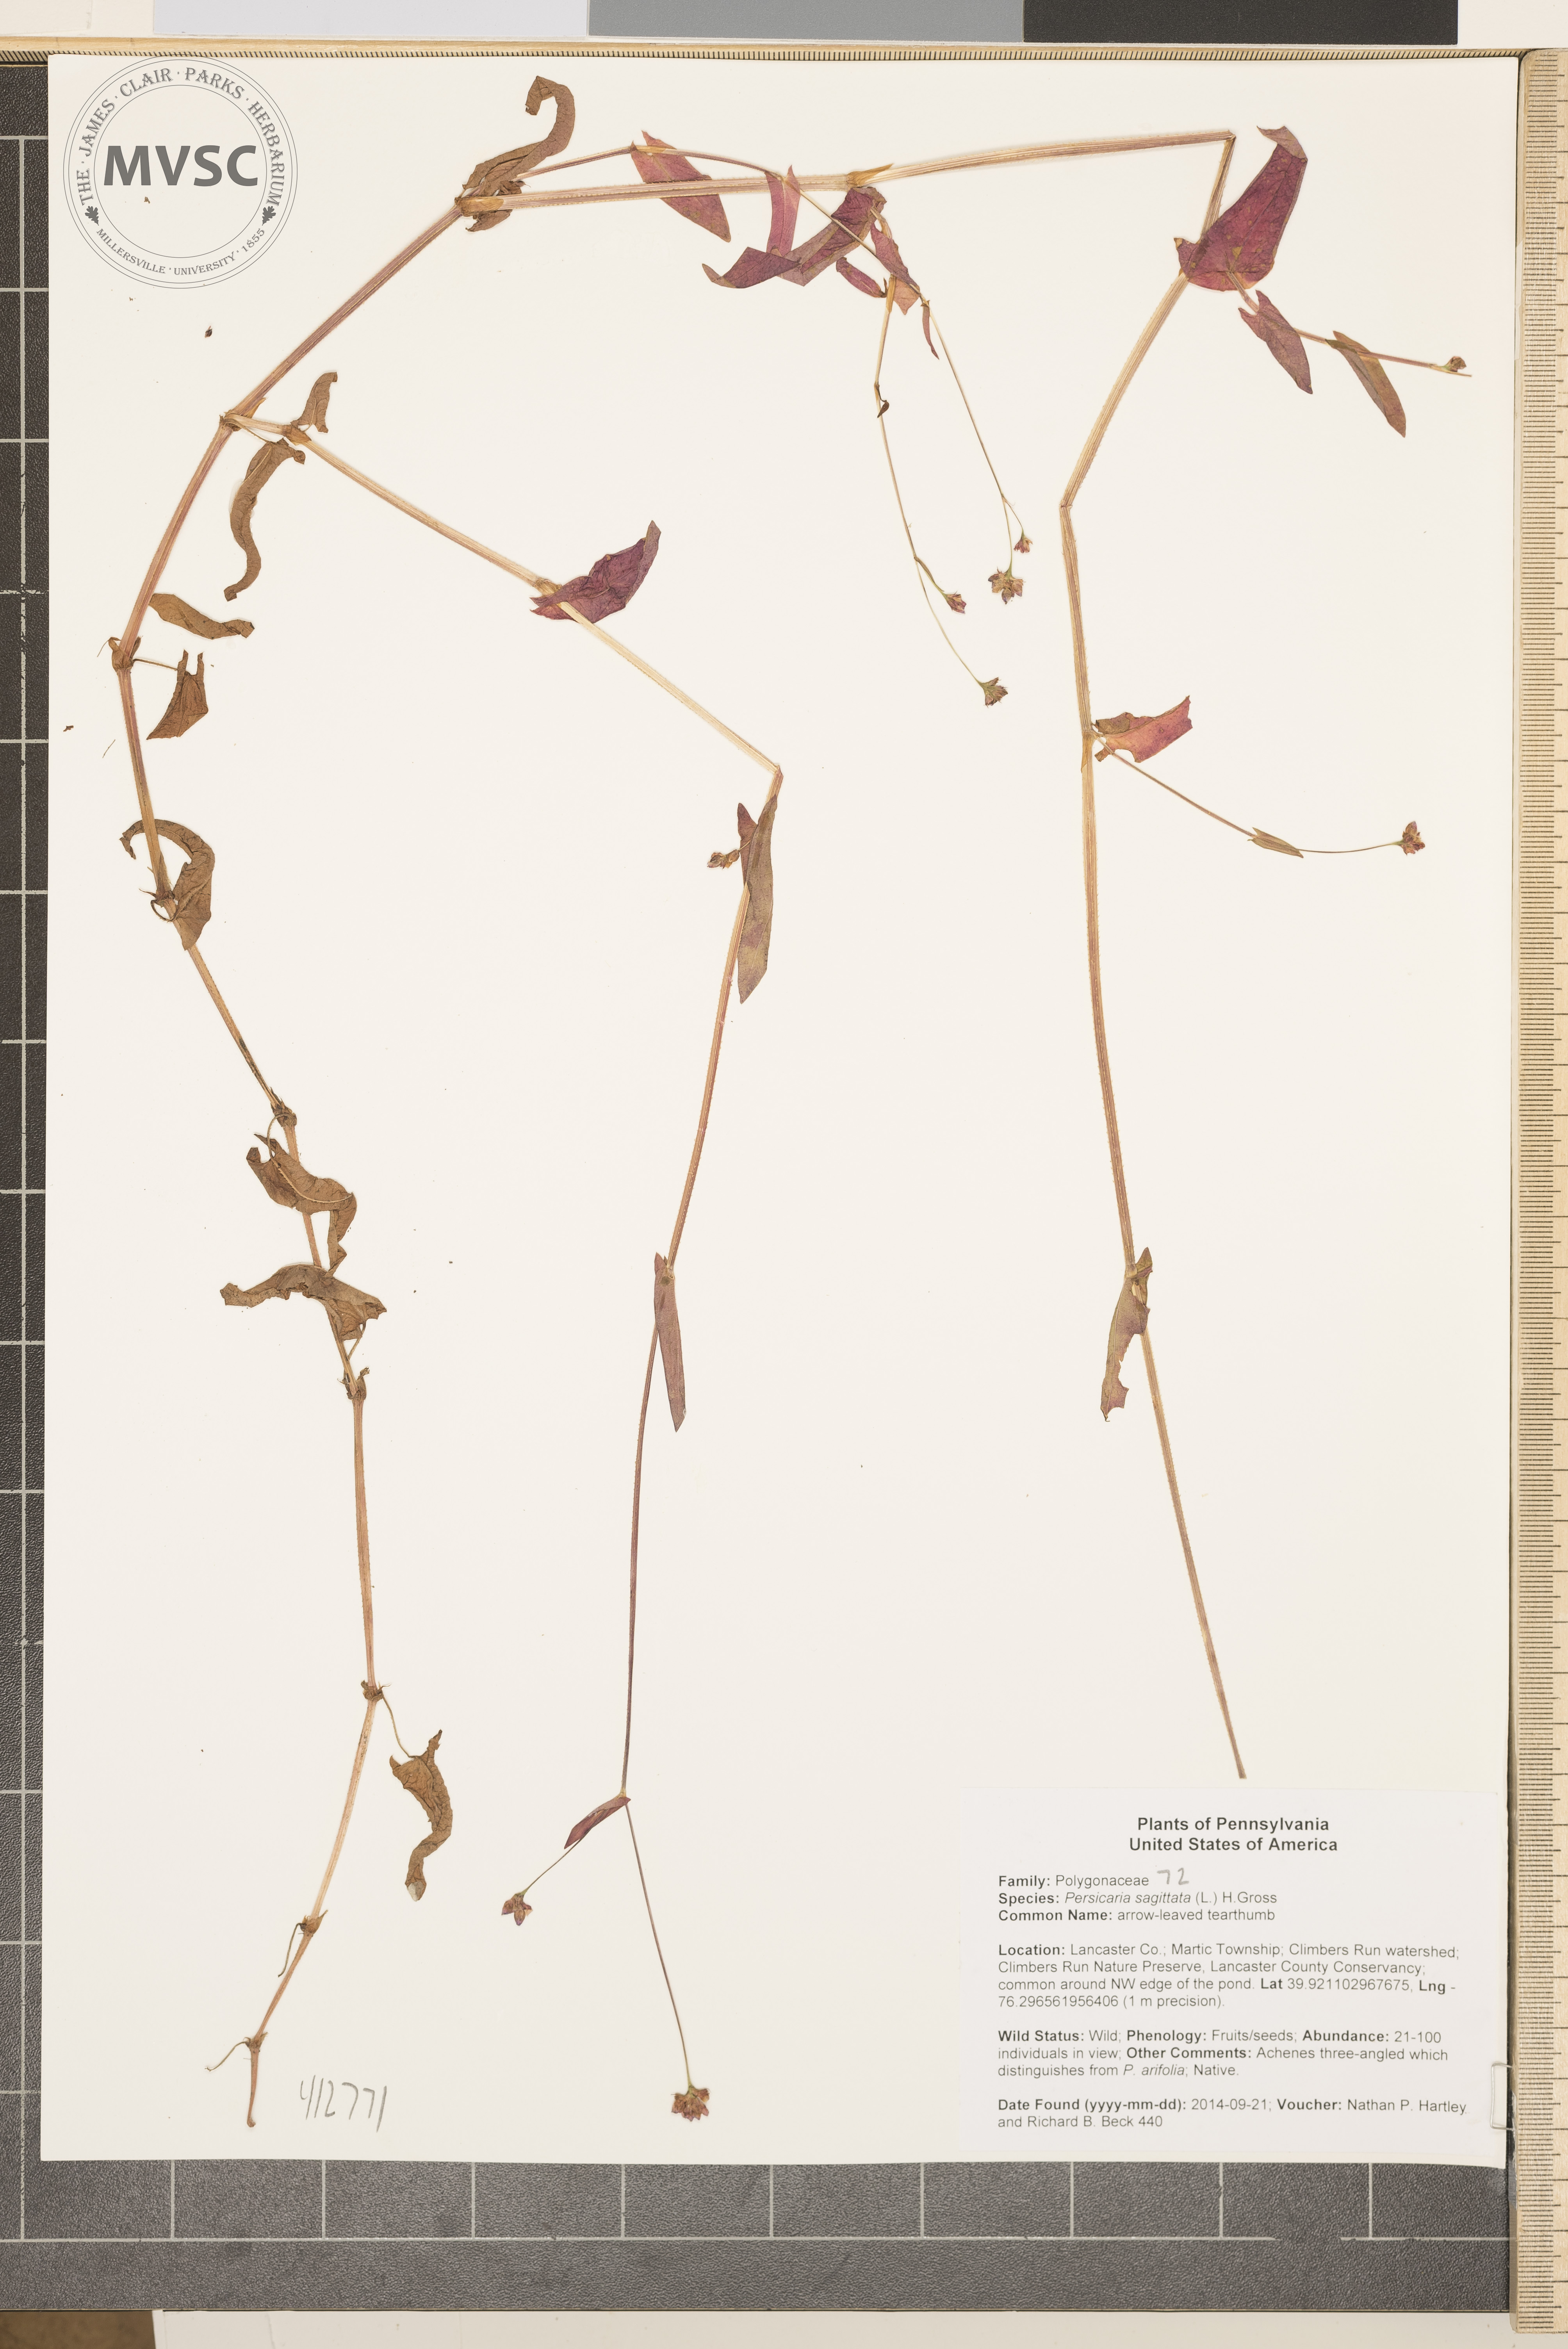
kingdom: Plantae
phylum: Tracheophyta
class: Magnoliopsida
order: Caryophyllales
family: Polygonaceae
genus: Persicaria
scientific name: Persicaria sagittata
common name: arrow-leaved tearthumb
